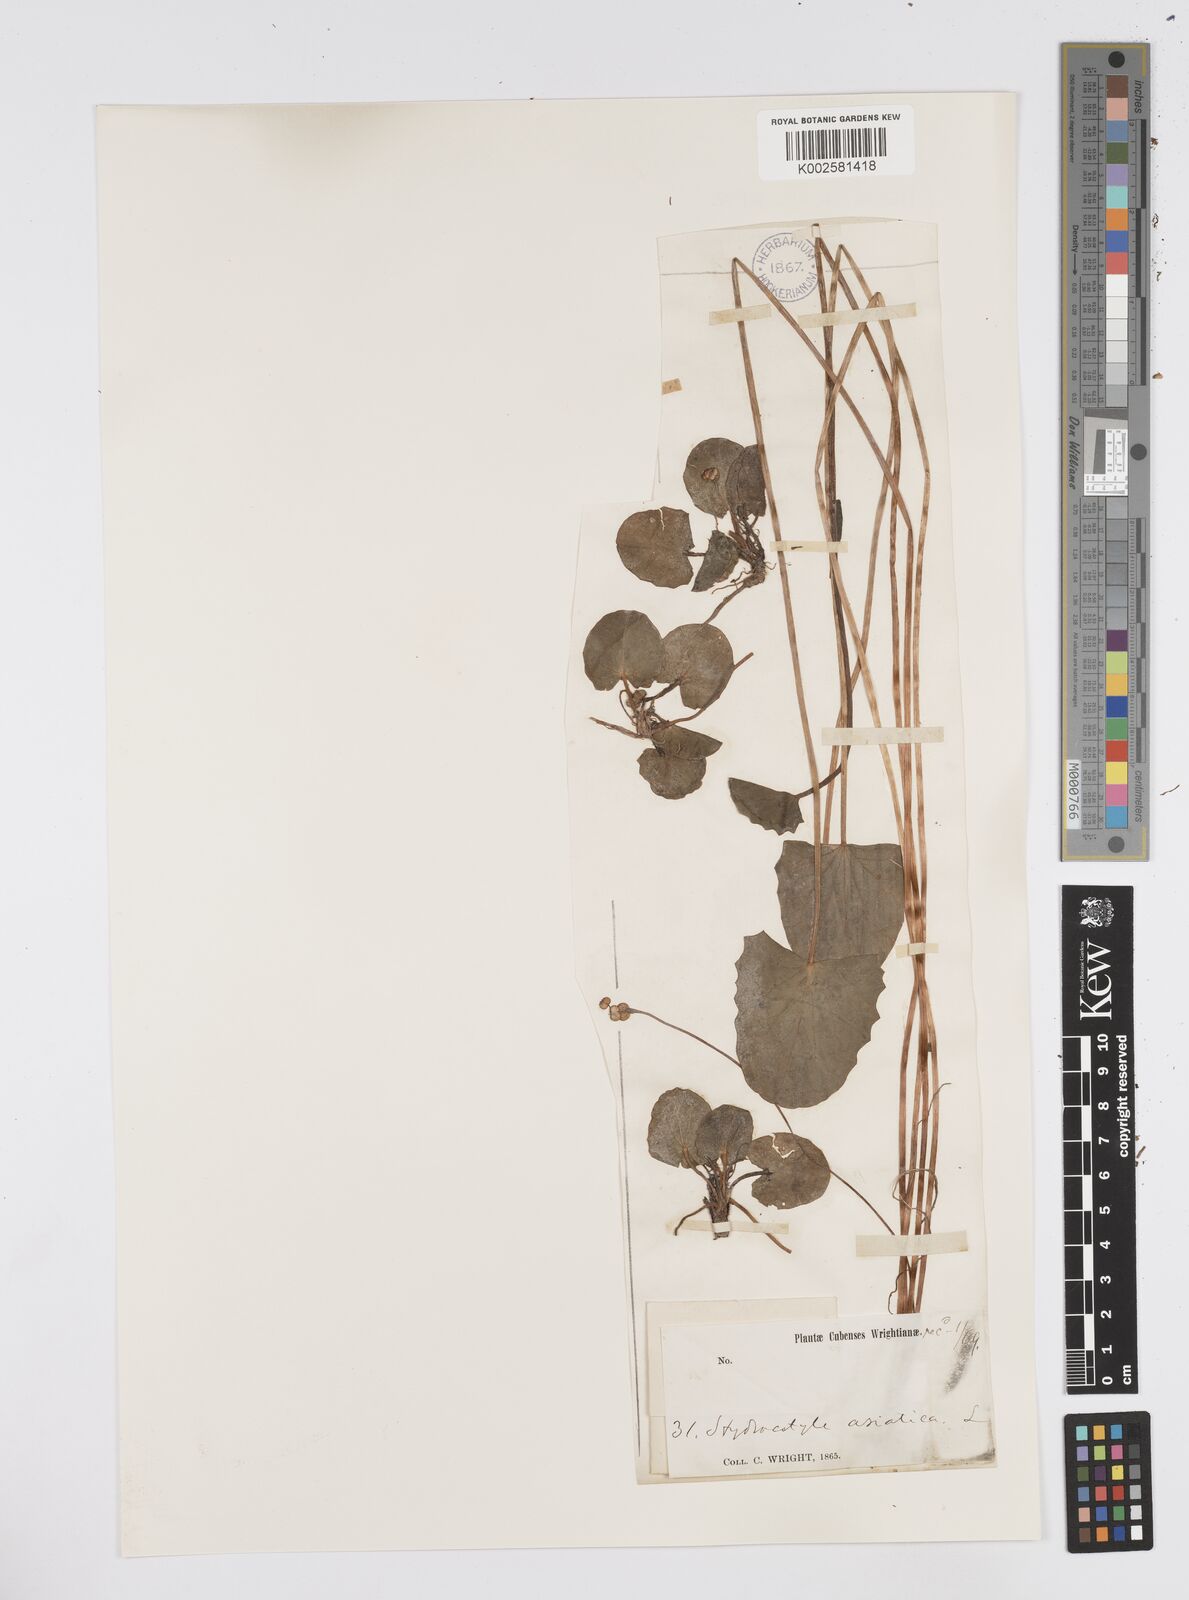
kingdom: Plantae
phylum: Tracheophyta
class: Magnoliopsida
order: Apiales
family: Apiaceae
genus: Centella
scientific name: Centella asiatica
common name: Spadeleaf
